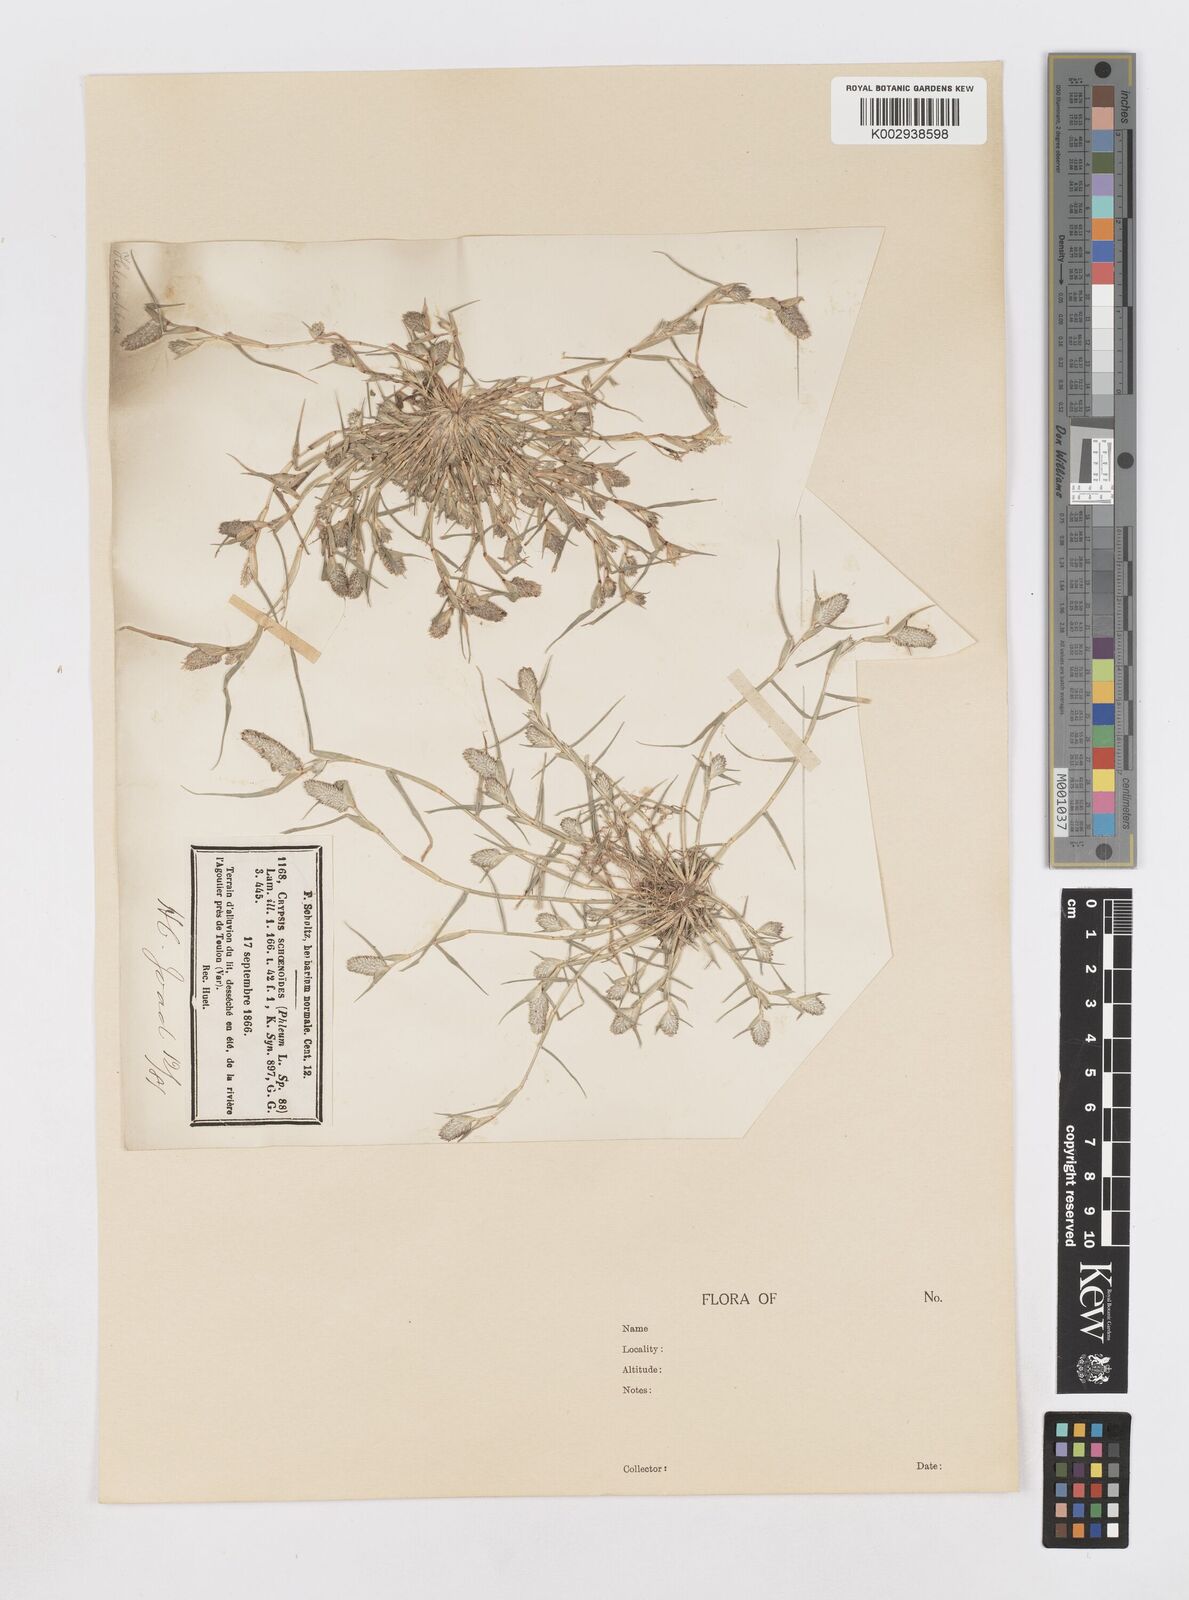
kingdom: Plantae
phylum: Tracheophyta
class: Liliopsida
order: Poales
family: Poaceae
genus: Sporobolus
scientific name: Sporobolus schoenoides
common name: Rush-like timothy
